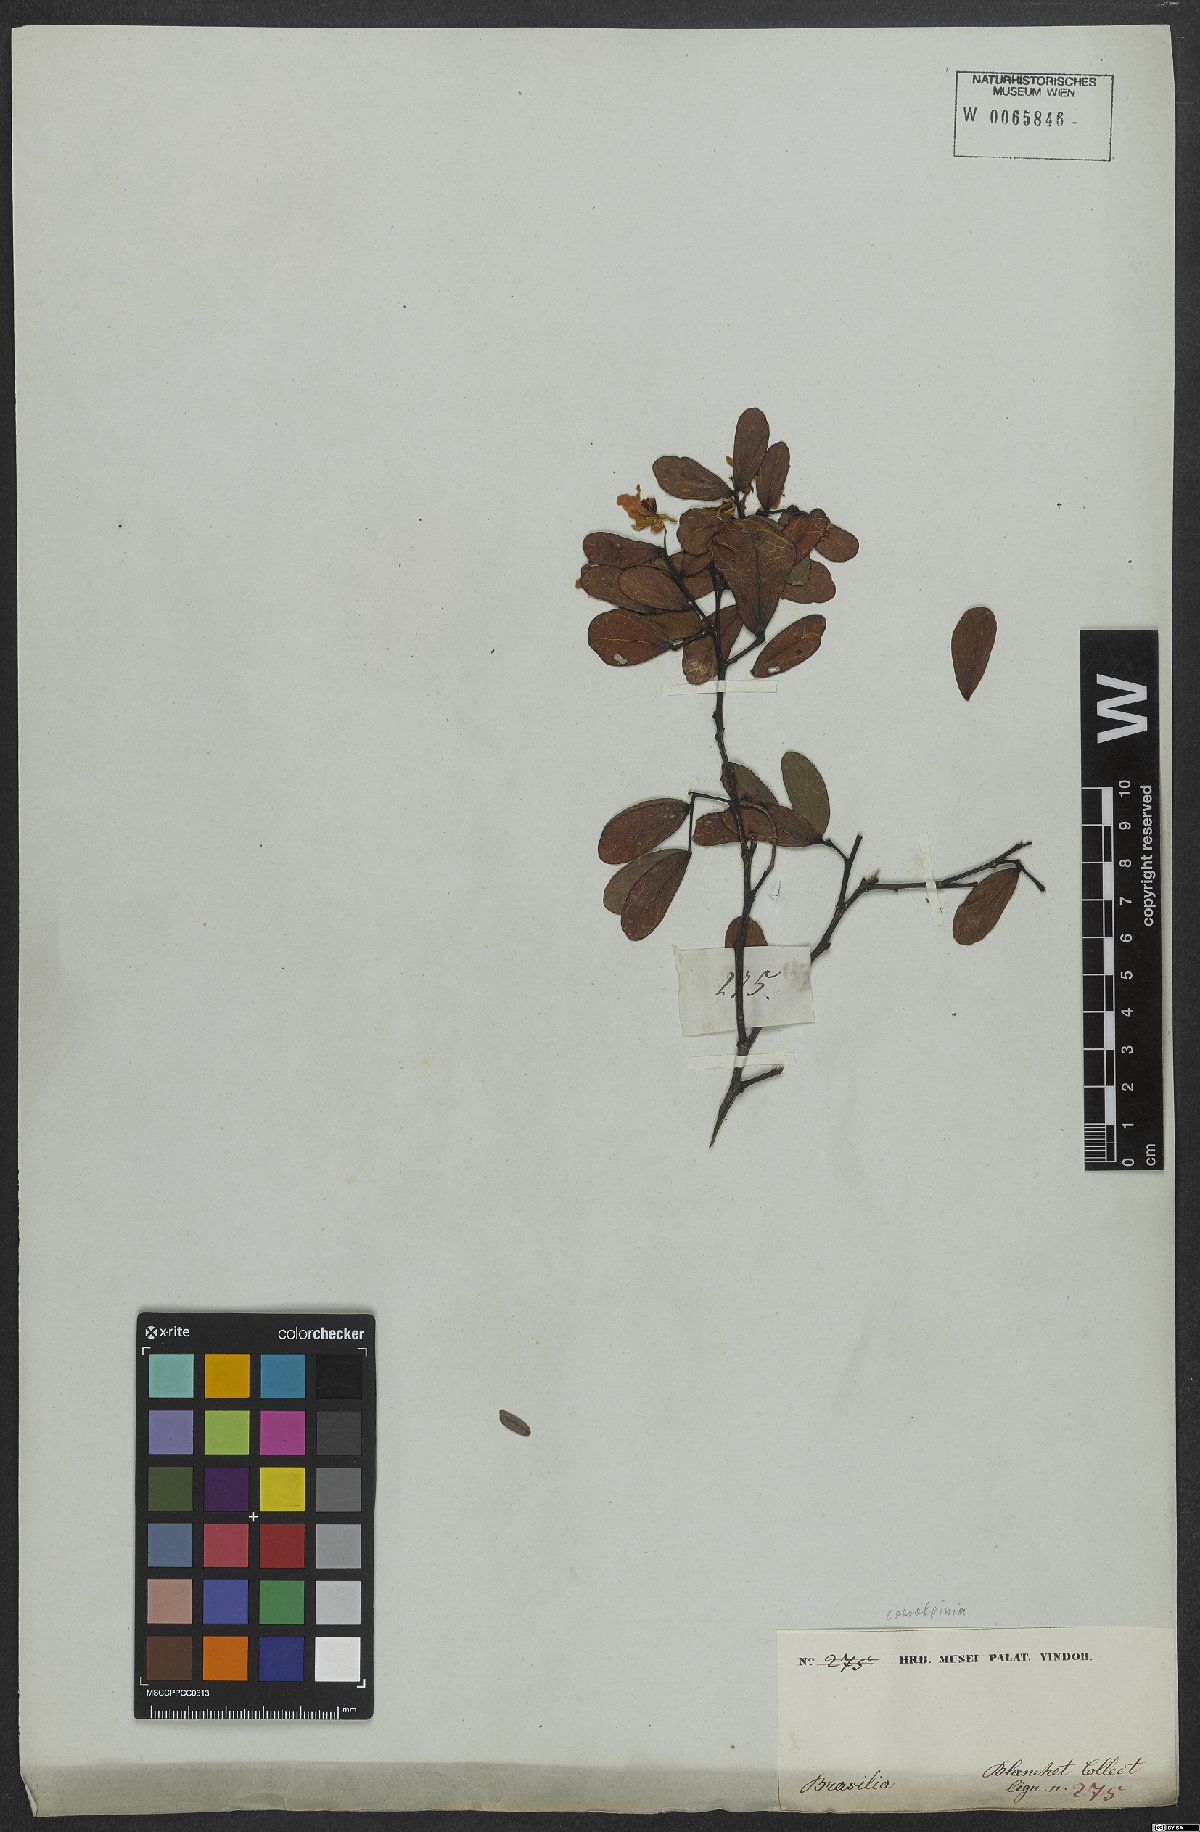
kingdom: Plantae
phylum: Tracheophyta
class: Magnoliopsida
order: Fabales
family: Fabaceae
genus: Caesalpinia
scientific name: Caesalpinia
